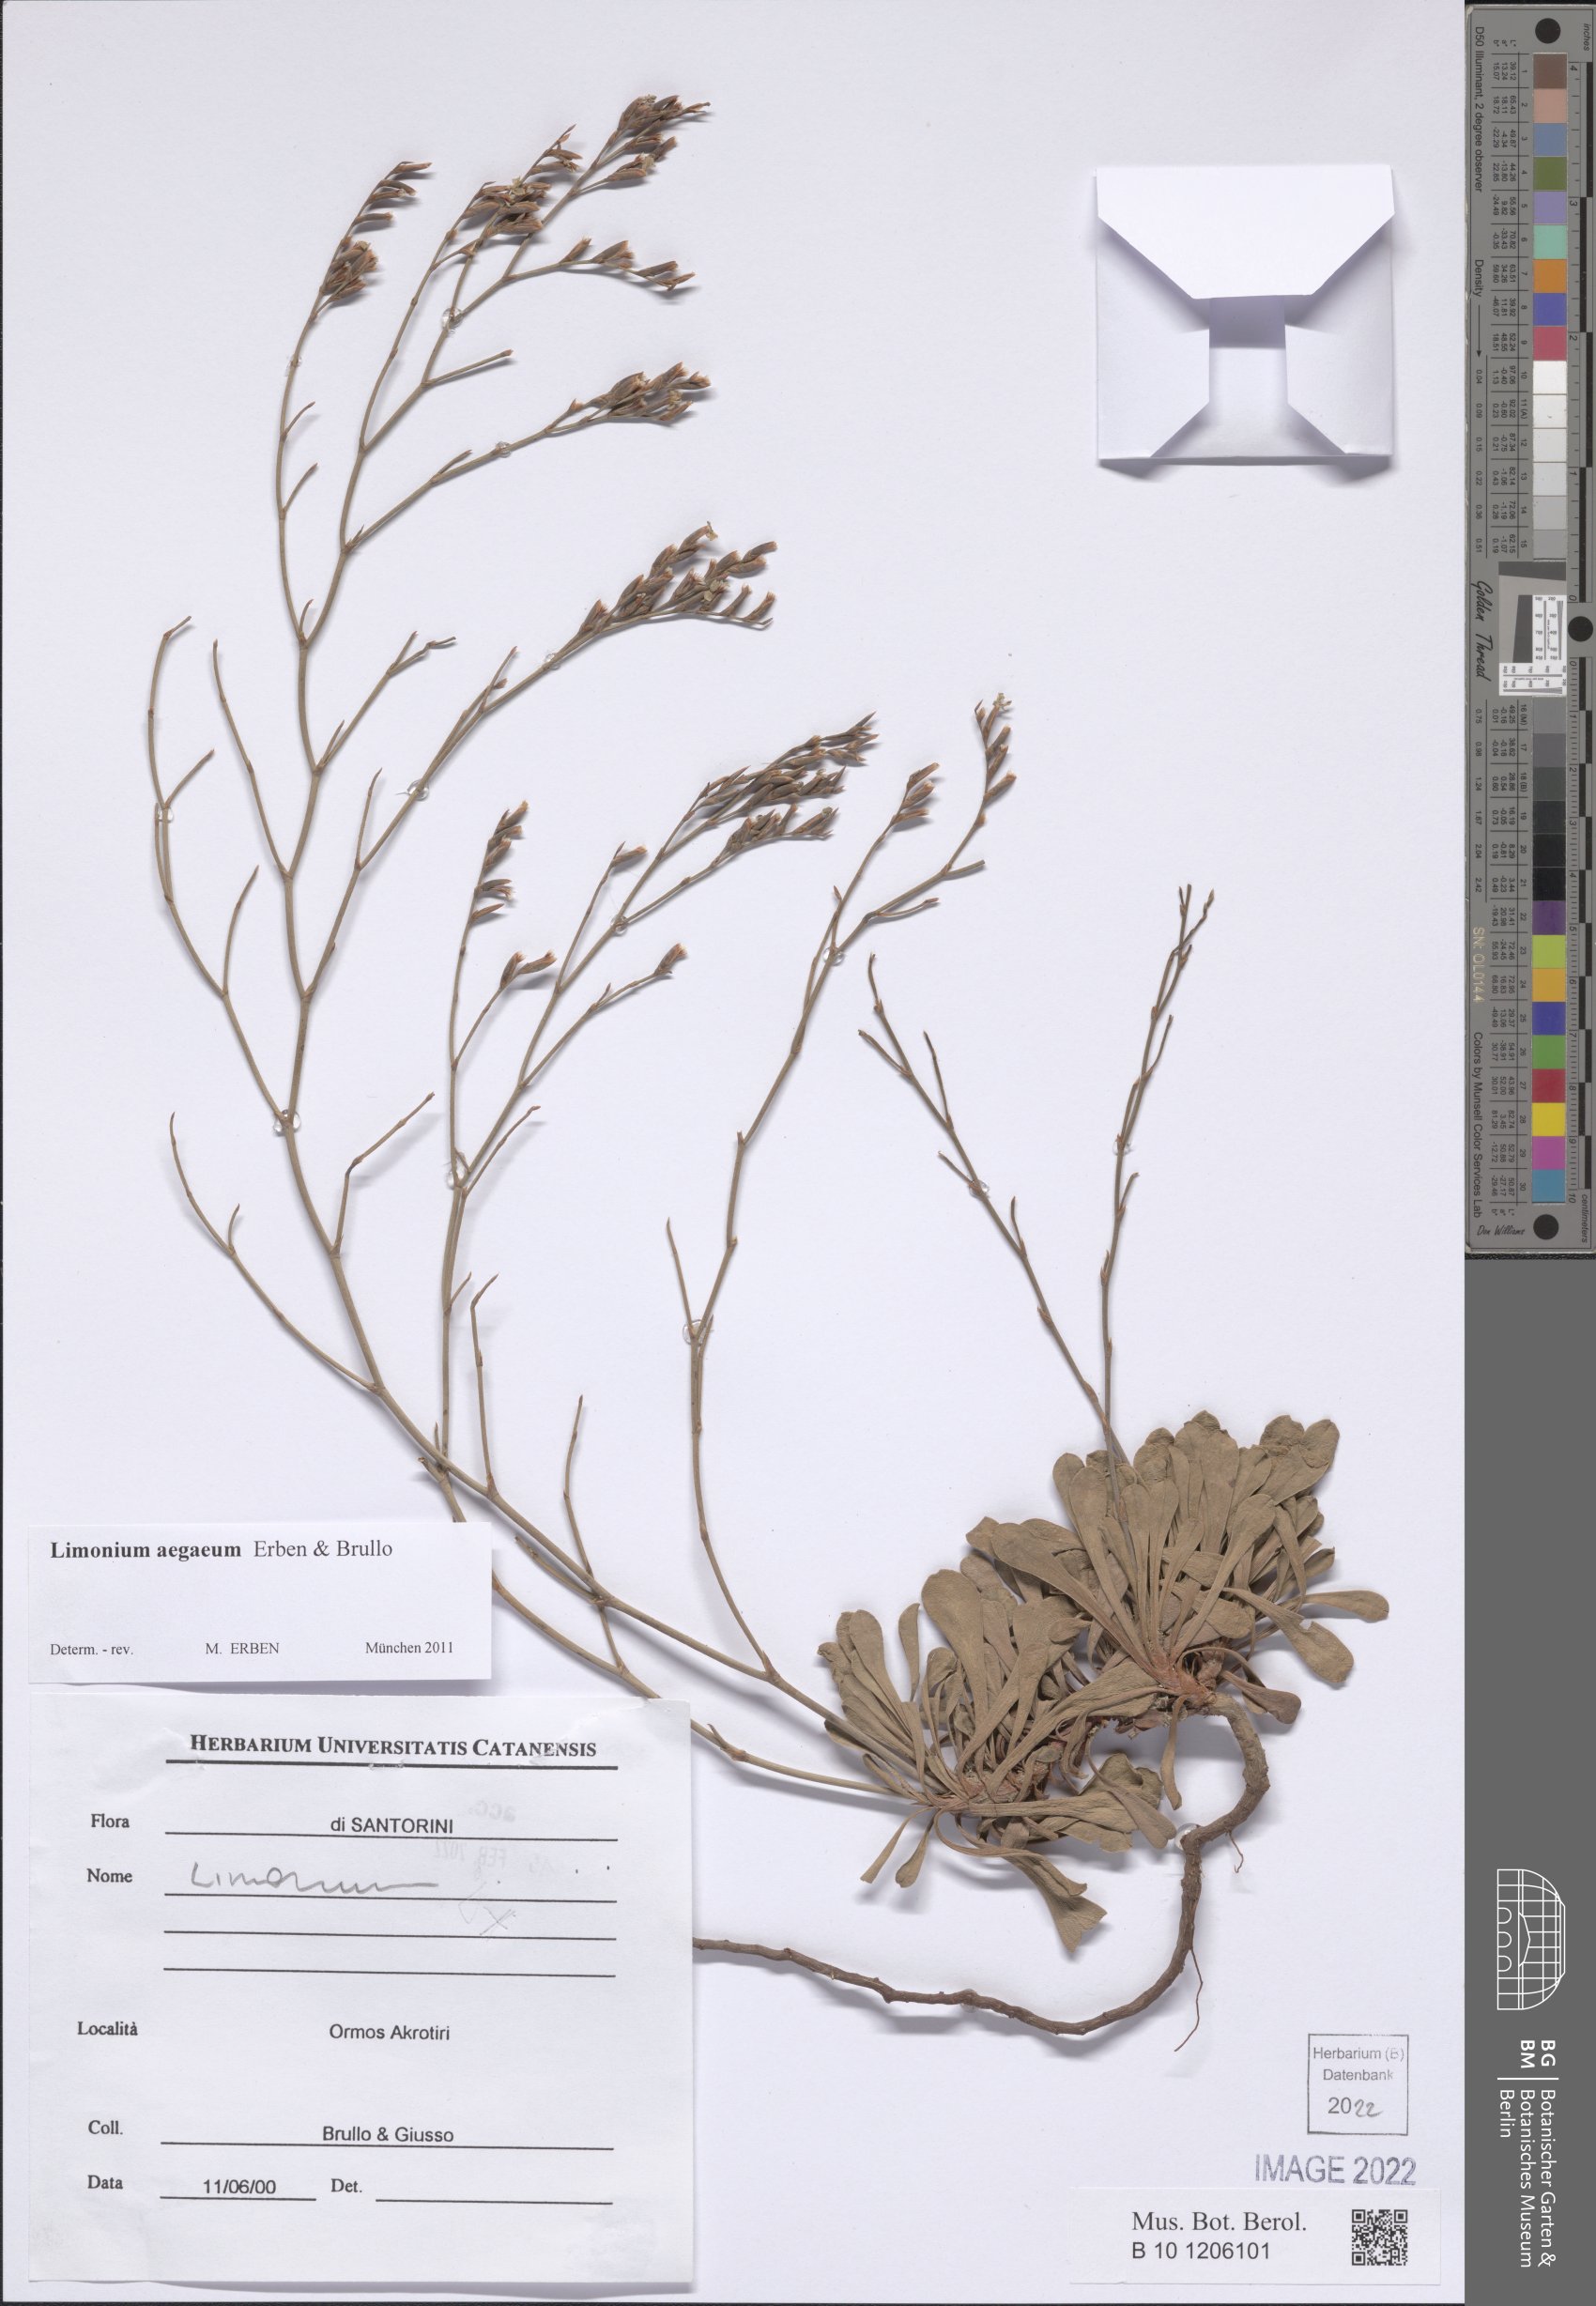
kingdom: Plantae
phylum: Tracheophyta
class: Magnoliopsida
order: Caryophyllales
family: Plumbaginaceae
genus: Limonium
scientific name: Limonium aegaeum
